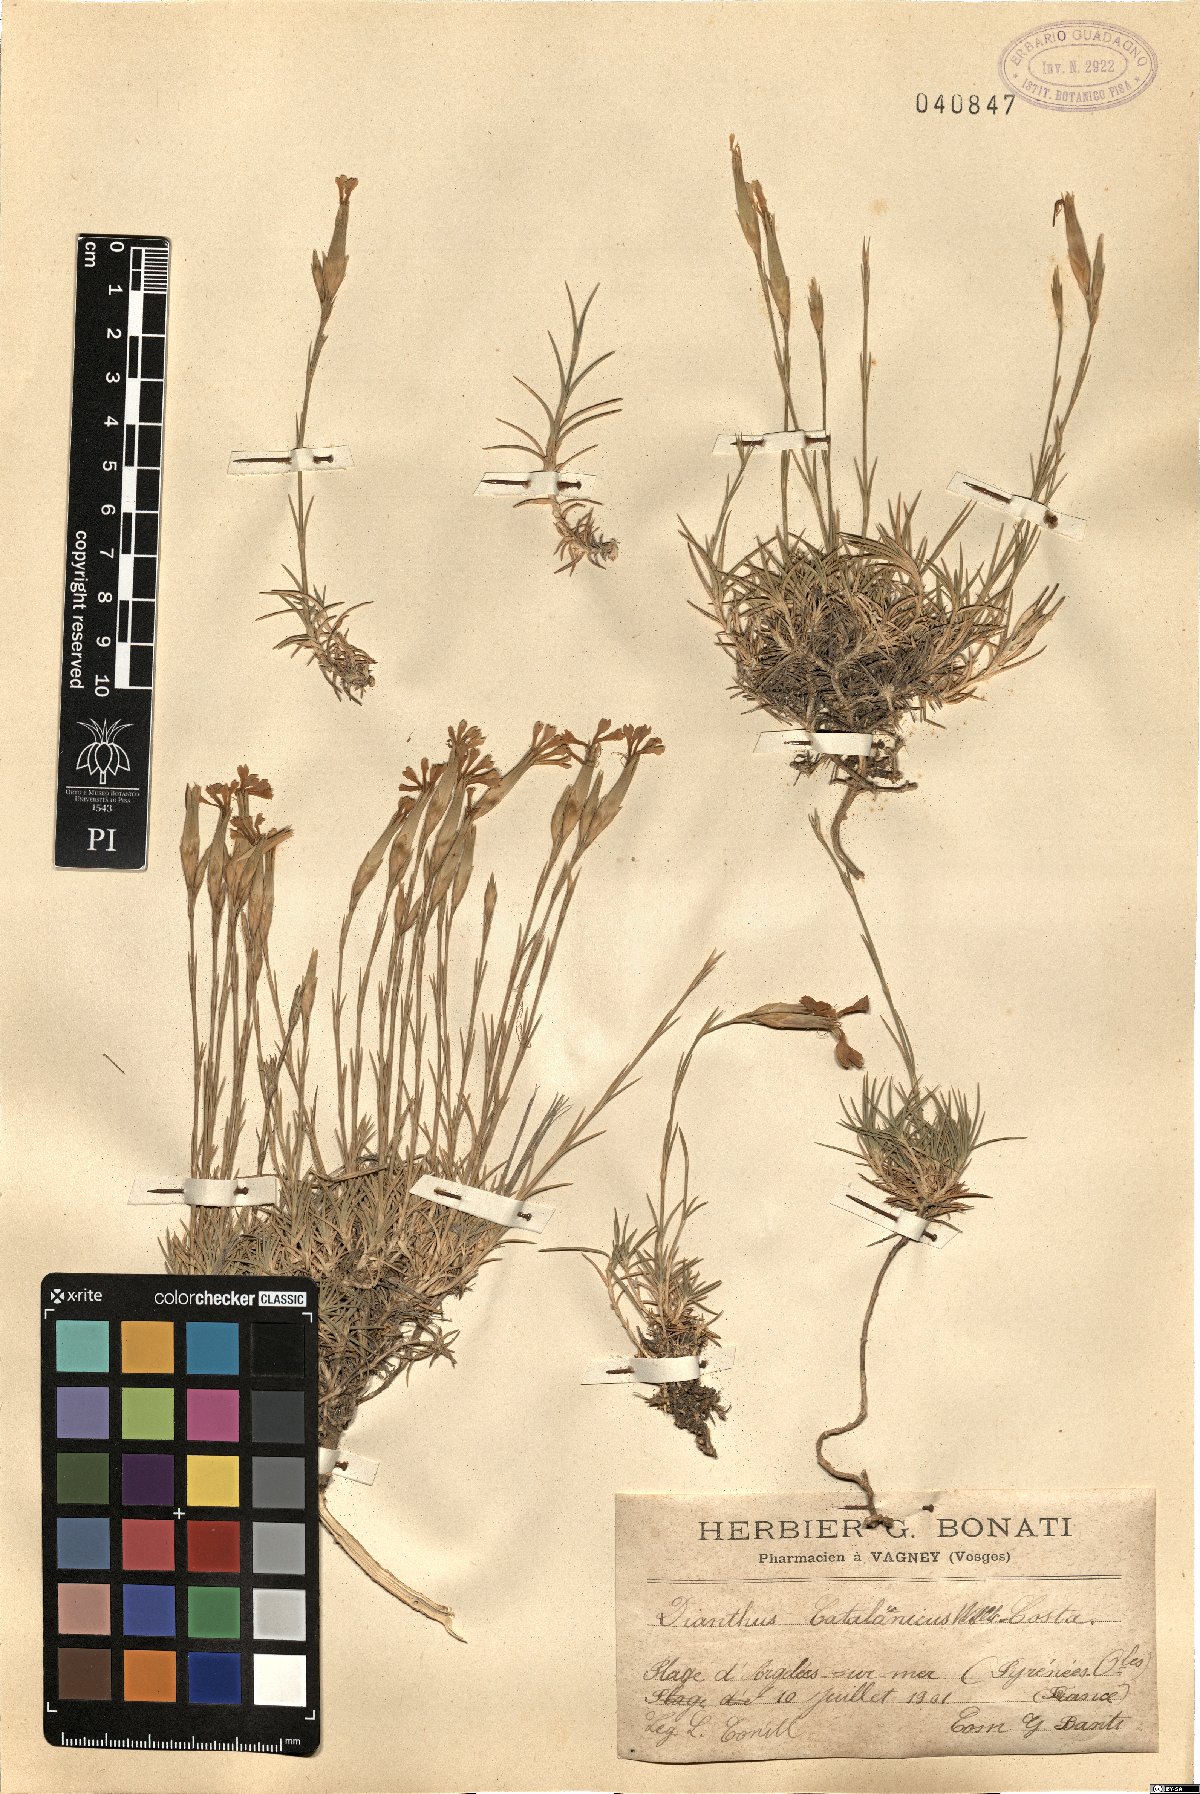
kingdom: Plantae
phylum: Tracheophyta
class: Magnoliopsida
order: Caryophyllales
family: Caryophyllaceae
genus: Dianthus
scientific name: Dianthus pyrenaicus
